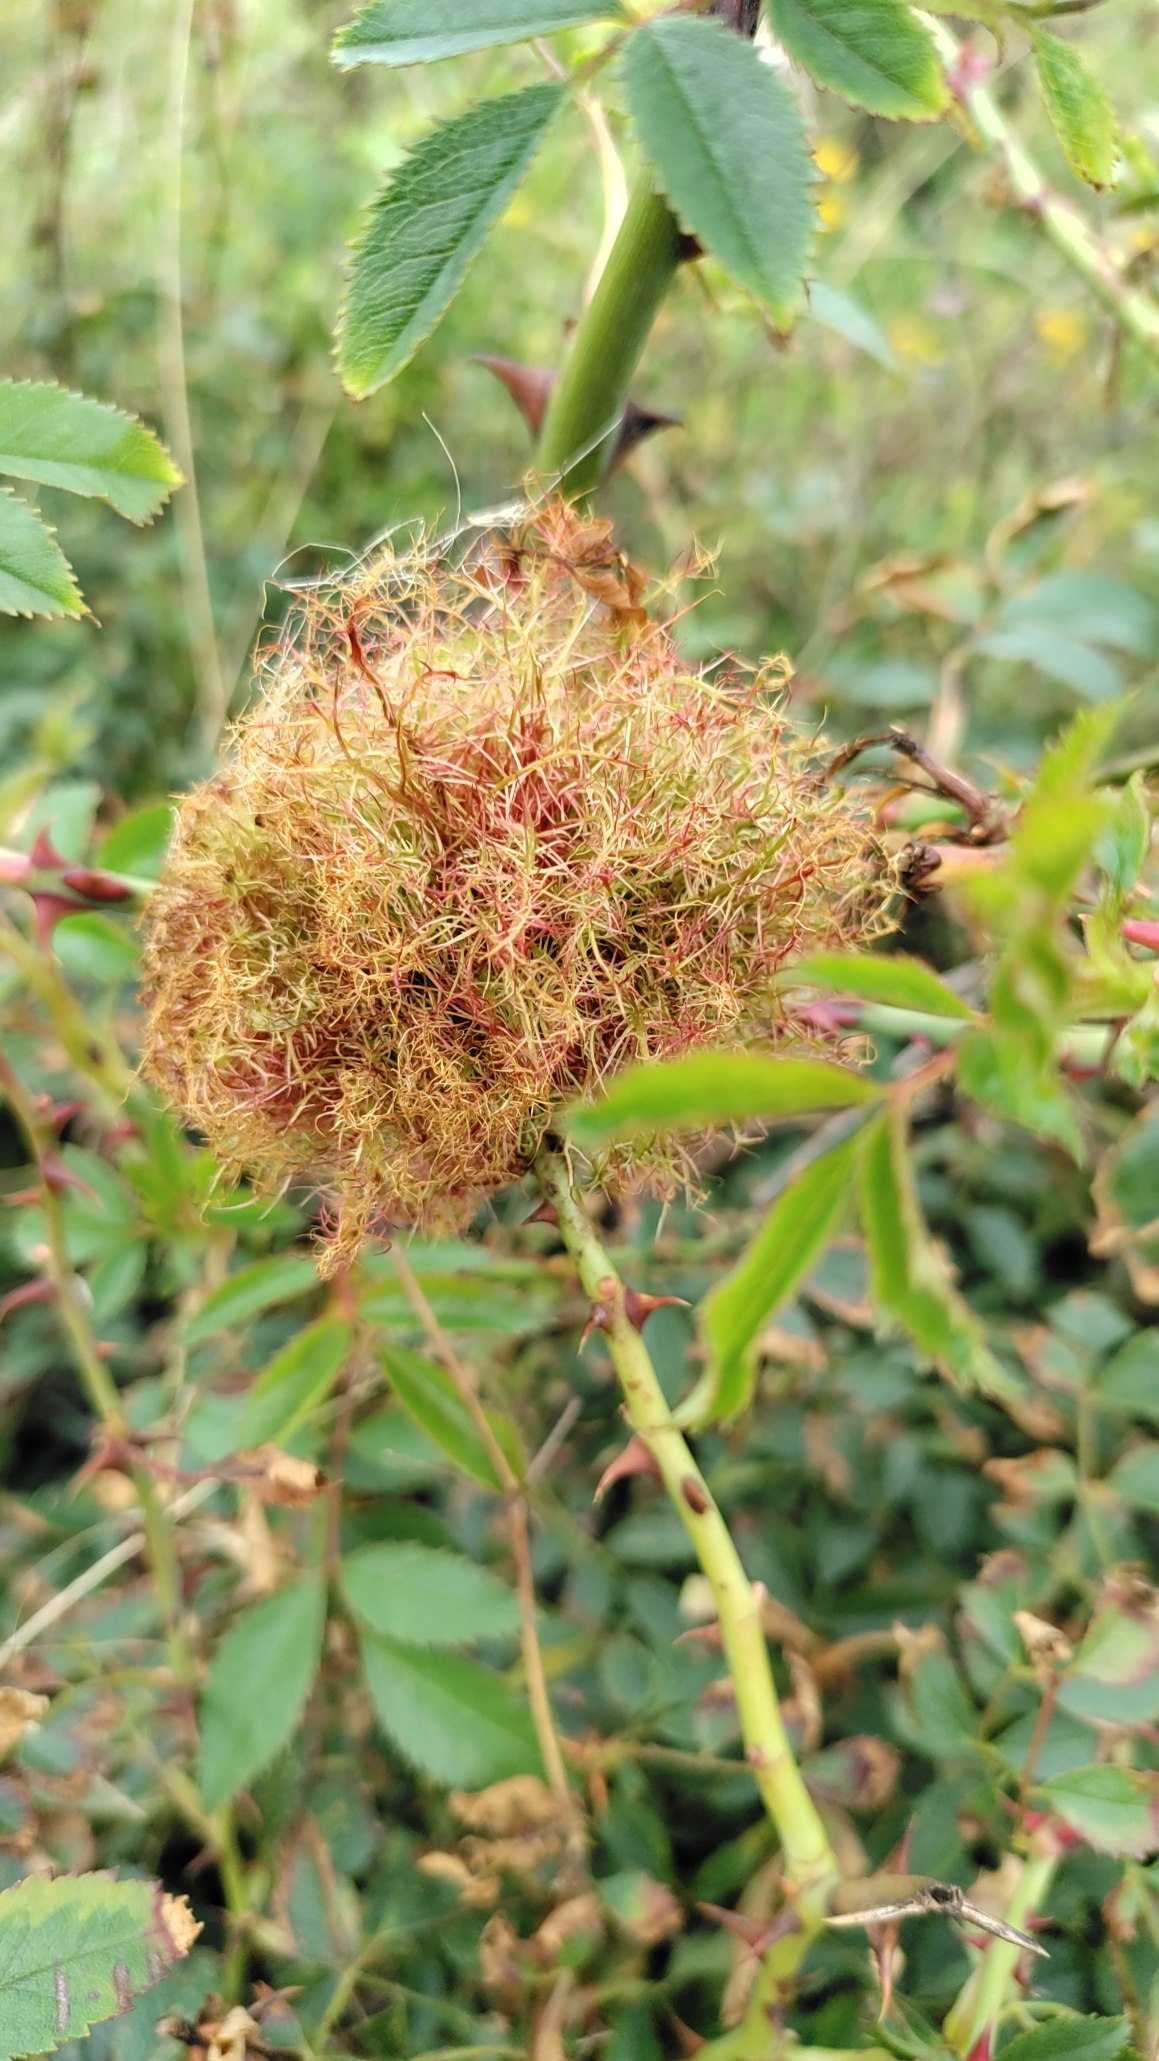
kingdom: Animalia
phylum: Arthropoda
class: Insecta
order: Hymenoptera
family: Cynipidae
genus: Diplolepis
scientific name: Diplolepis rosae
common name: Bedeguargalhveps
